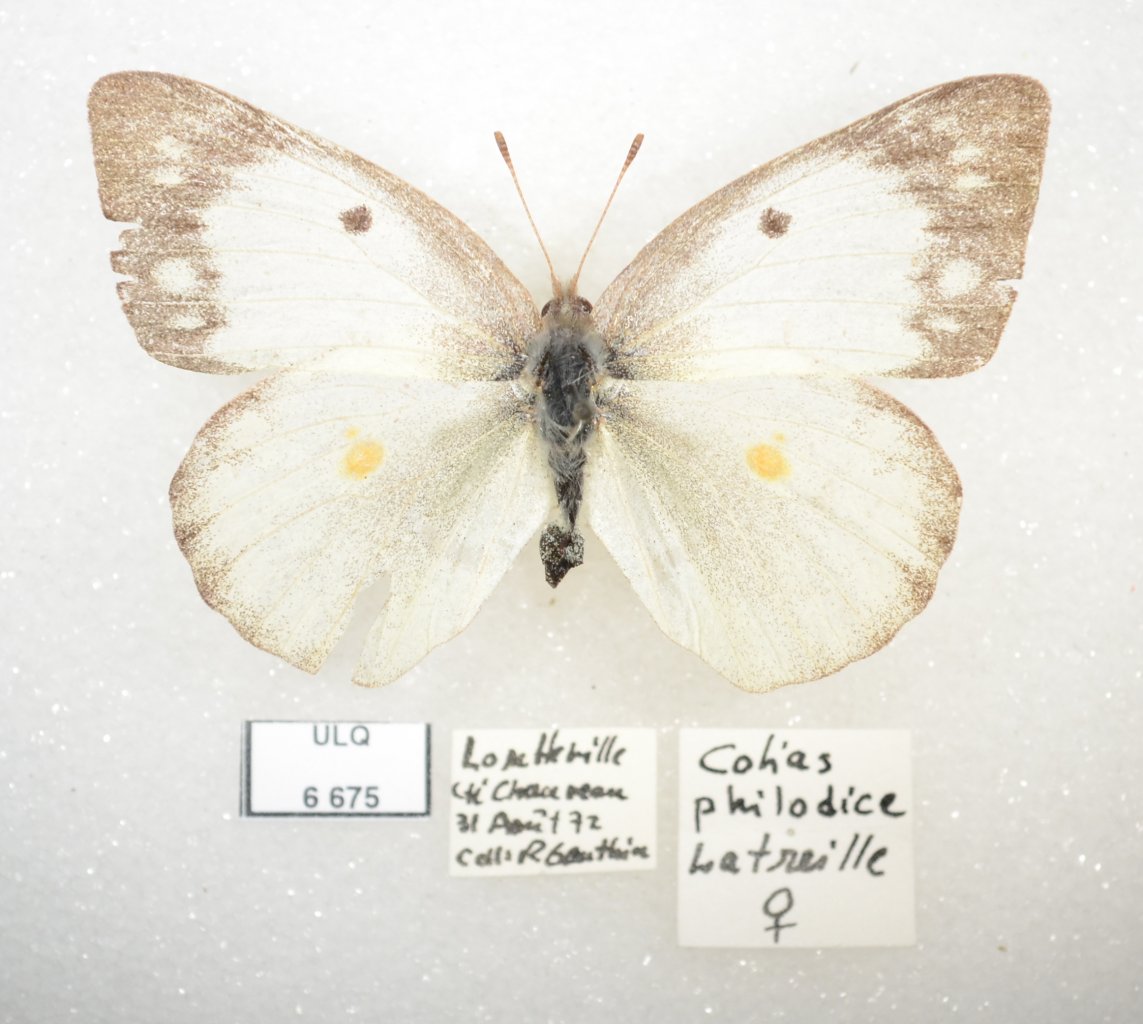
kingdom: Animalia
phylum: Arthropoda
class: Insecta
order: Lepidoptera
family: Pieridae
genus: Colias
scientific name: Colias philodice
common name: Clouded Sulphur
